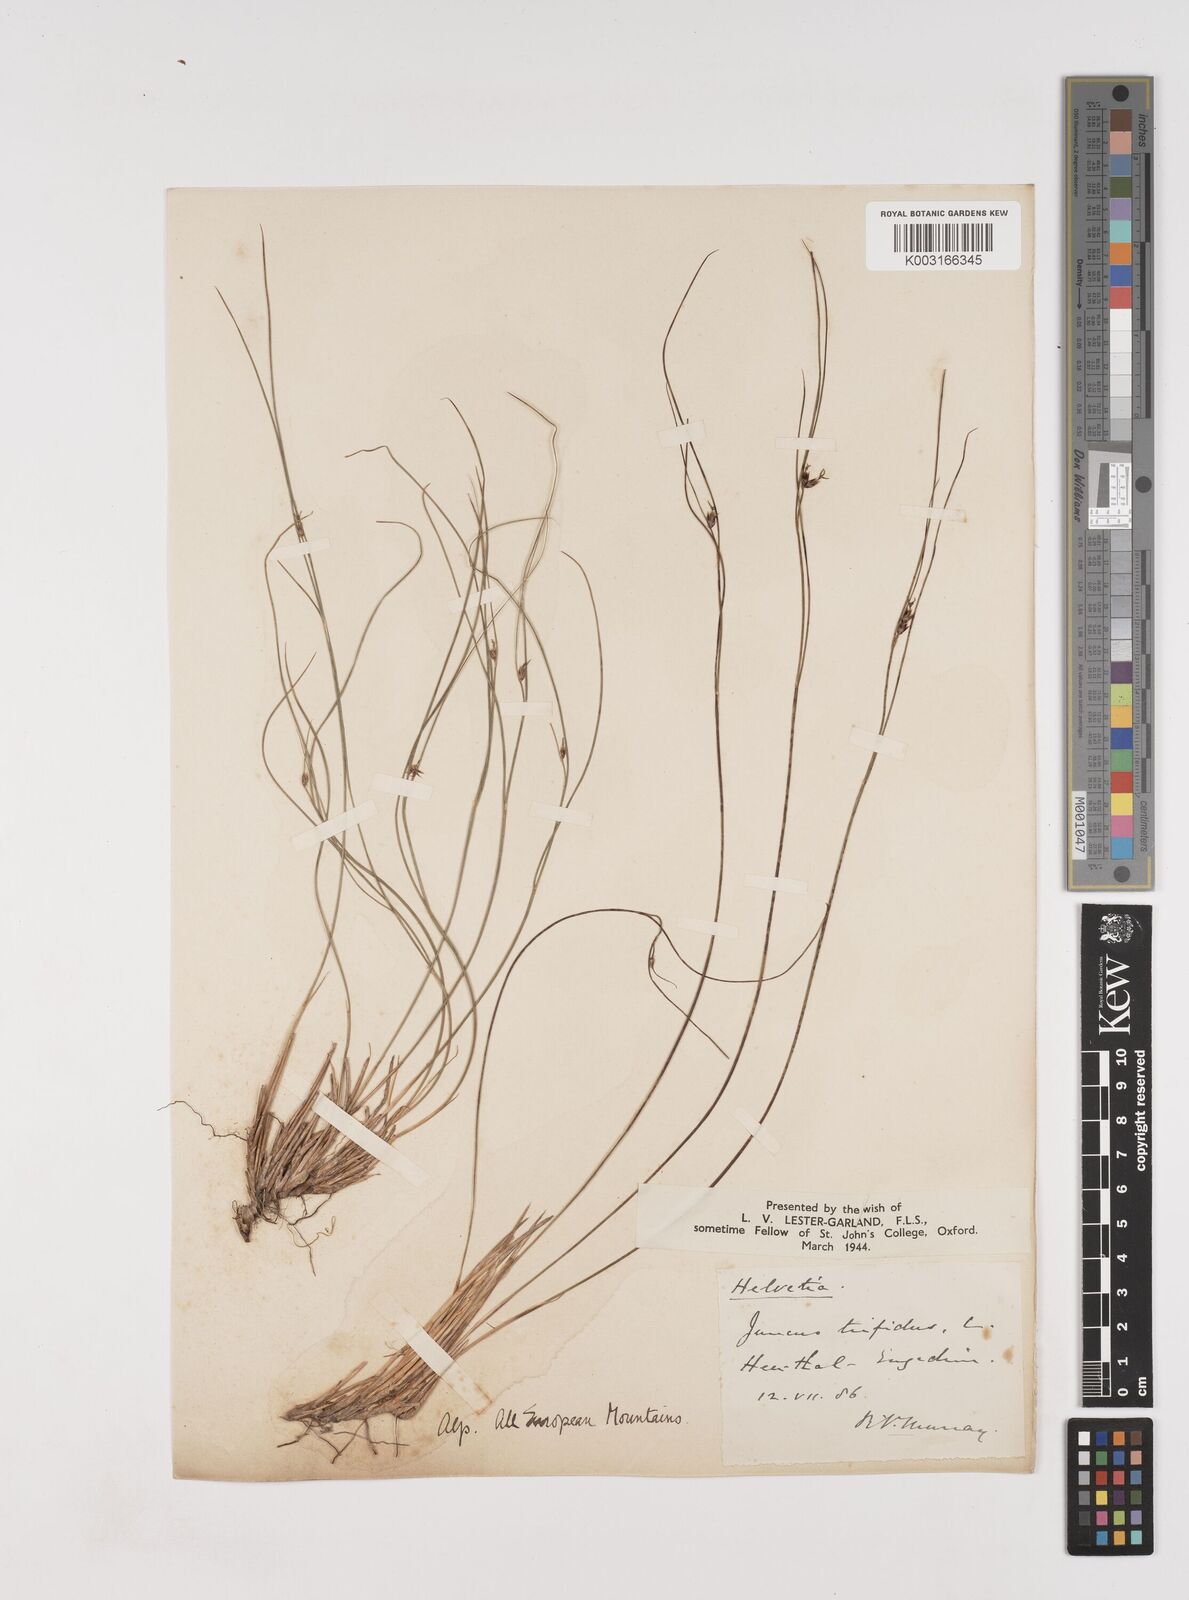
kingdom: Plantae
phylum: Tracheophyta
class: Liliopsida
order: Poales
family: Juncaceae
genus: Oreojuncus
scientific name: Oreojuncus trifidus
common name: Highland rush
